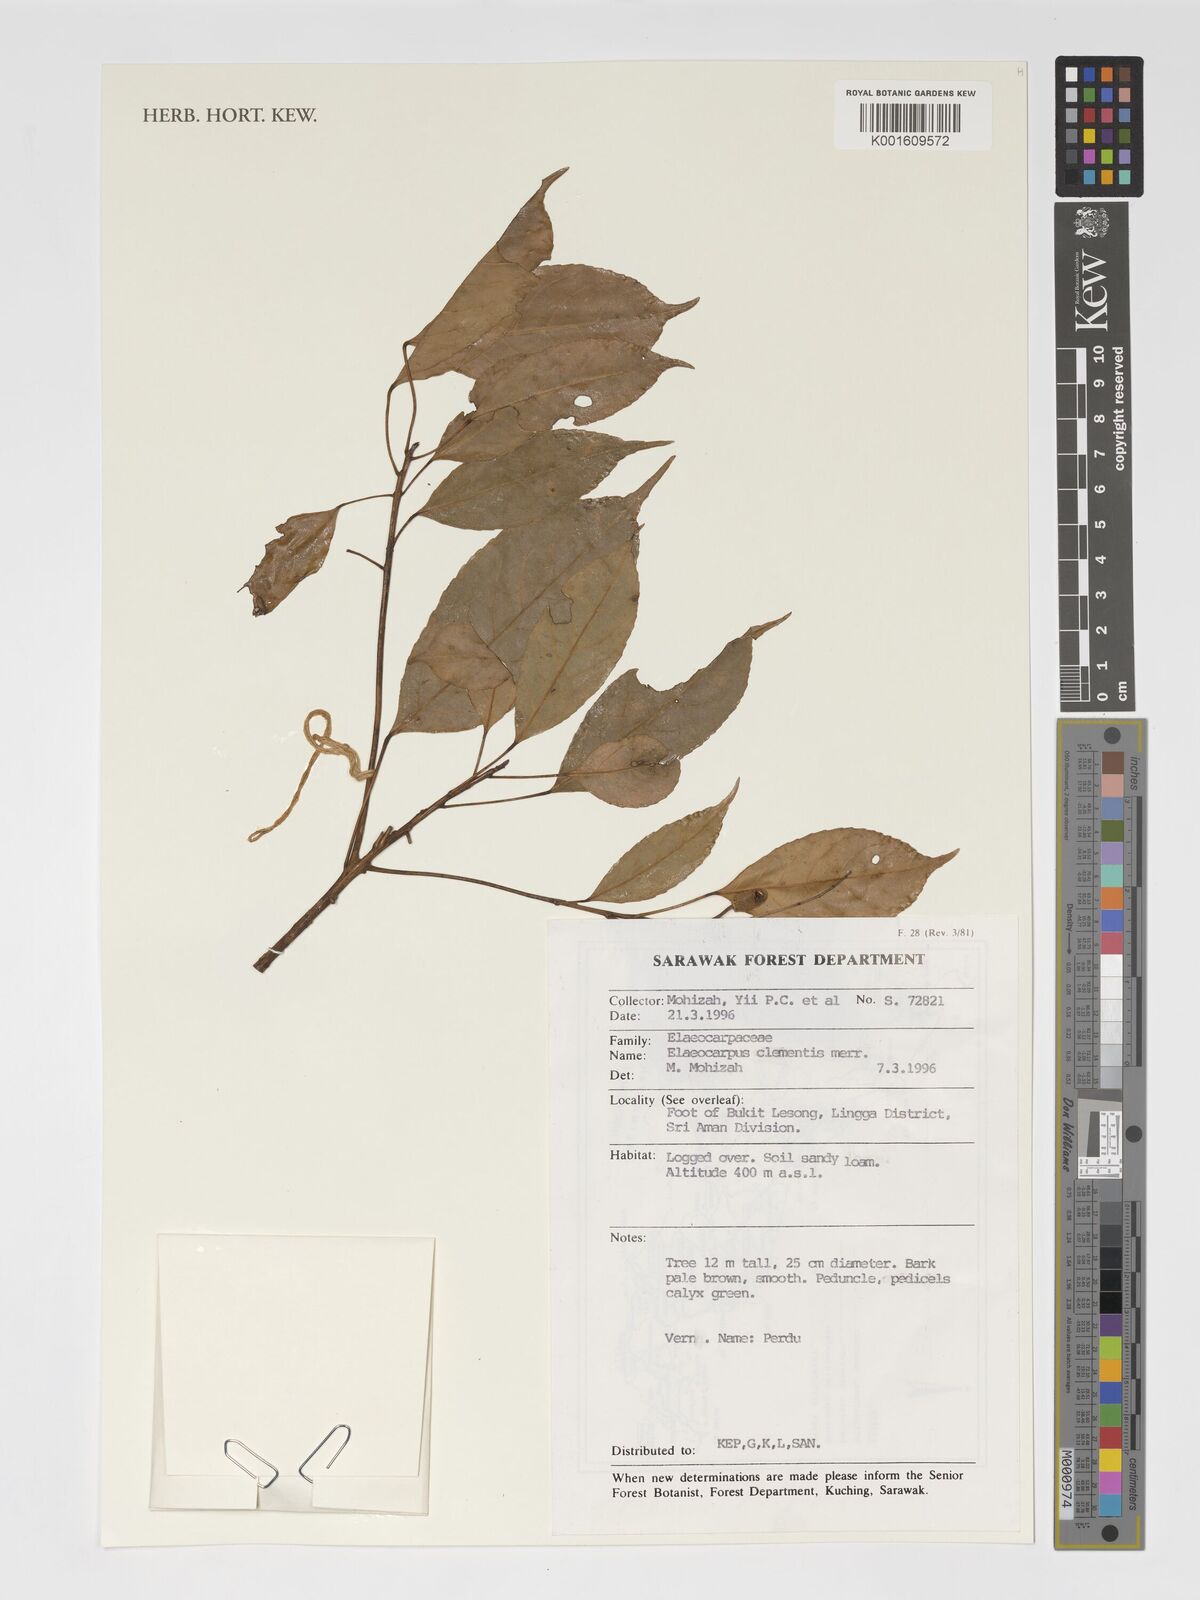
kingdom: Plantae
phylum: Tracheophyta
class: Magnoliopsida
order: Oxalidales
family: Elaeocarpaceae
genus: Elaeocarpus
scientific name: Elaeocarpus clementis
